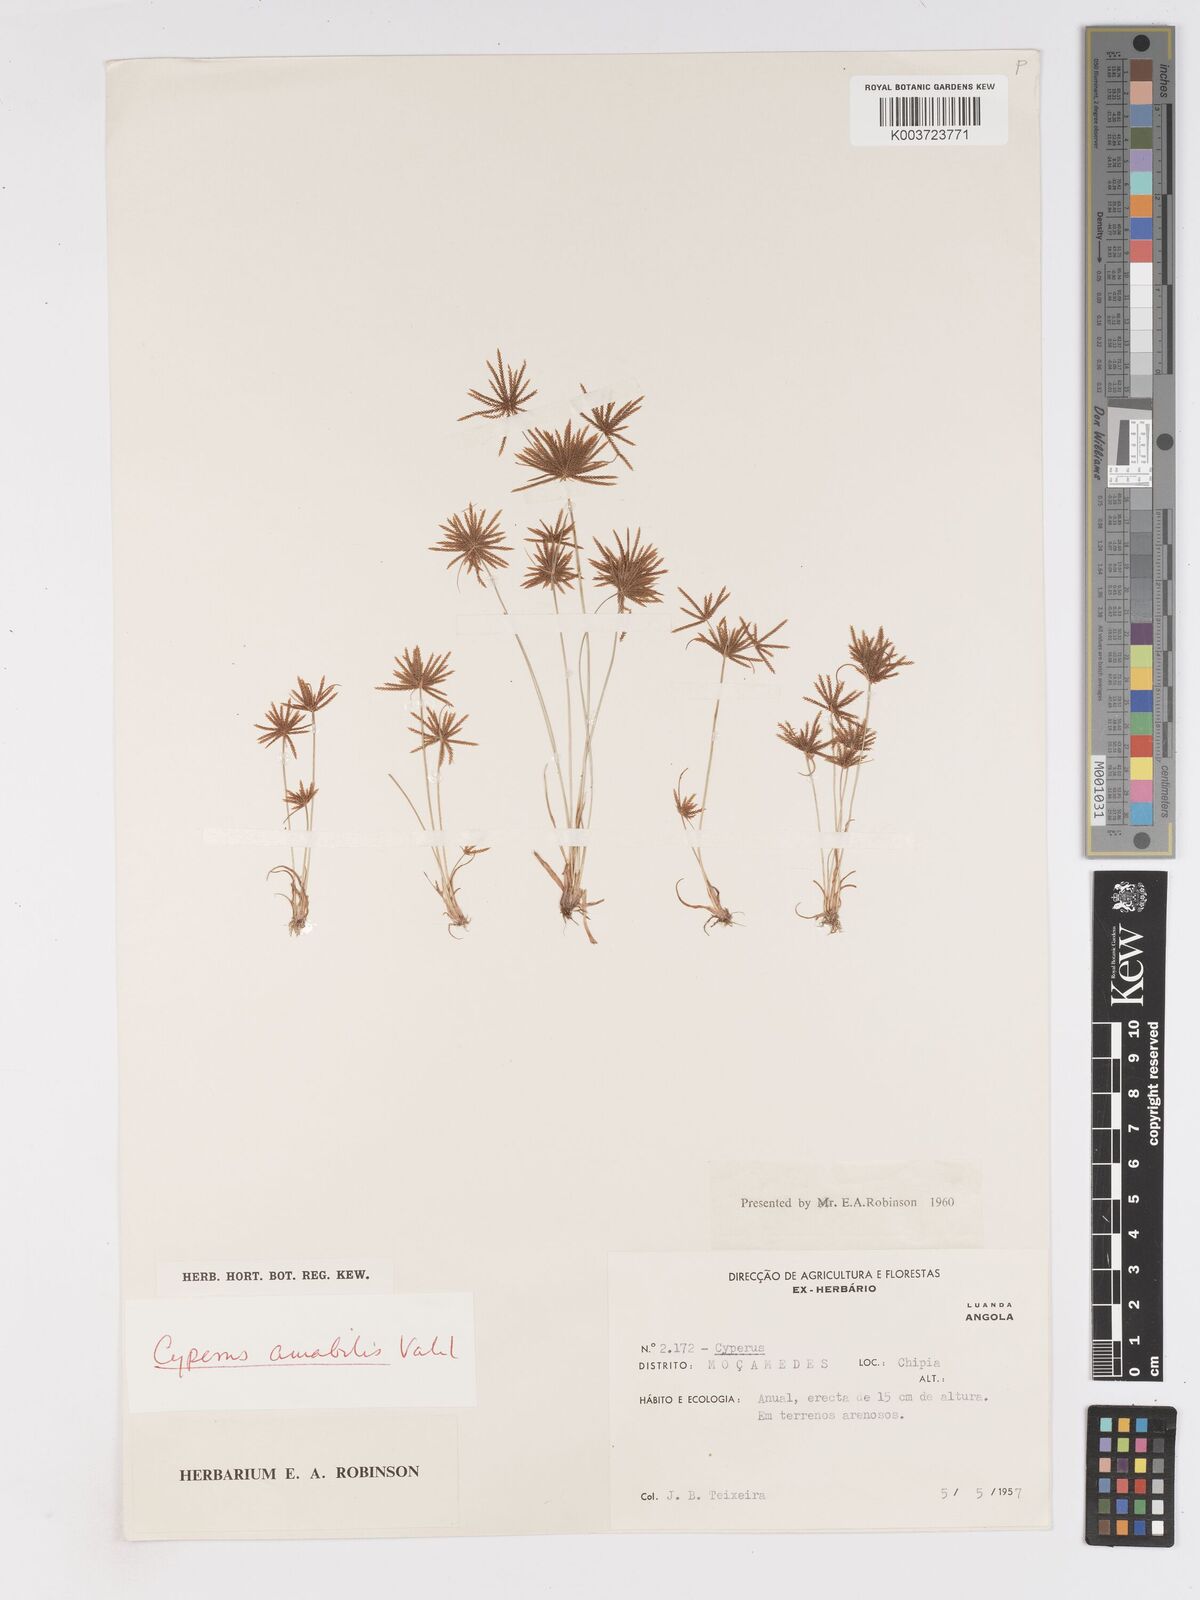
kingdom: Plantae
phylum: Tracheophyta
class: Liliopsida
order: Poales
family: Cyperaceae
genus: Cyperus
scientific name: Cyperus amabilis
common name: Foothill flat sedge
